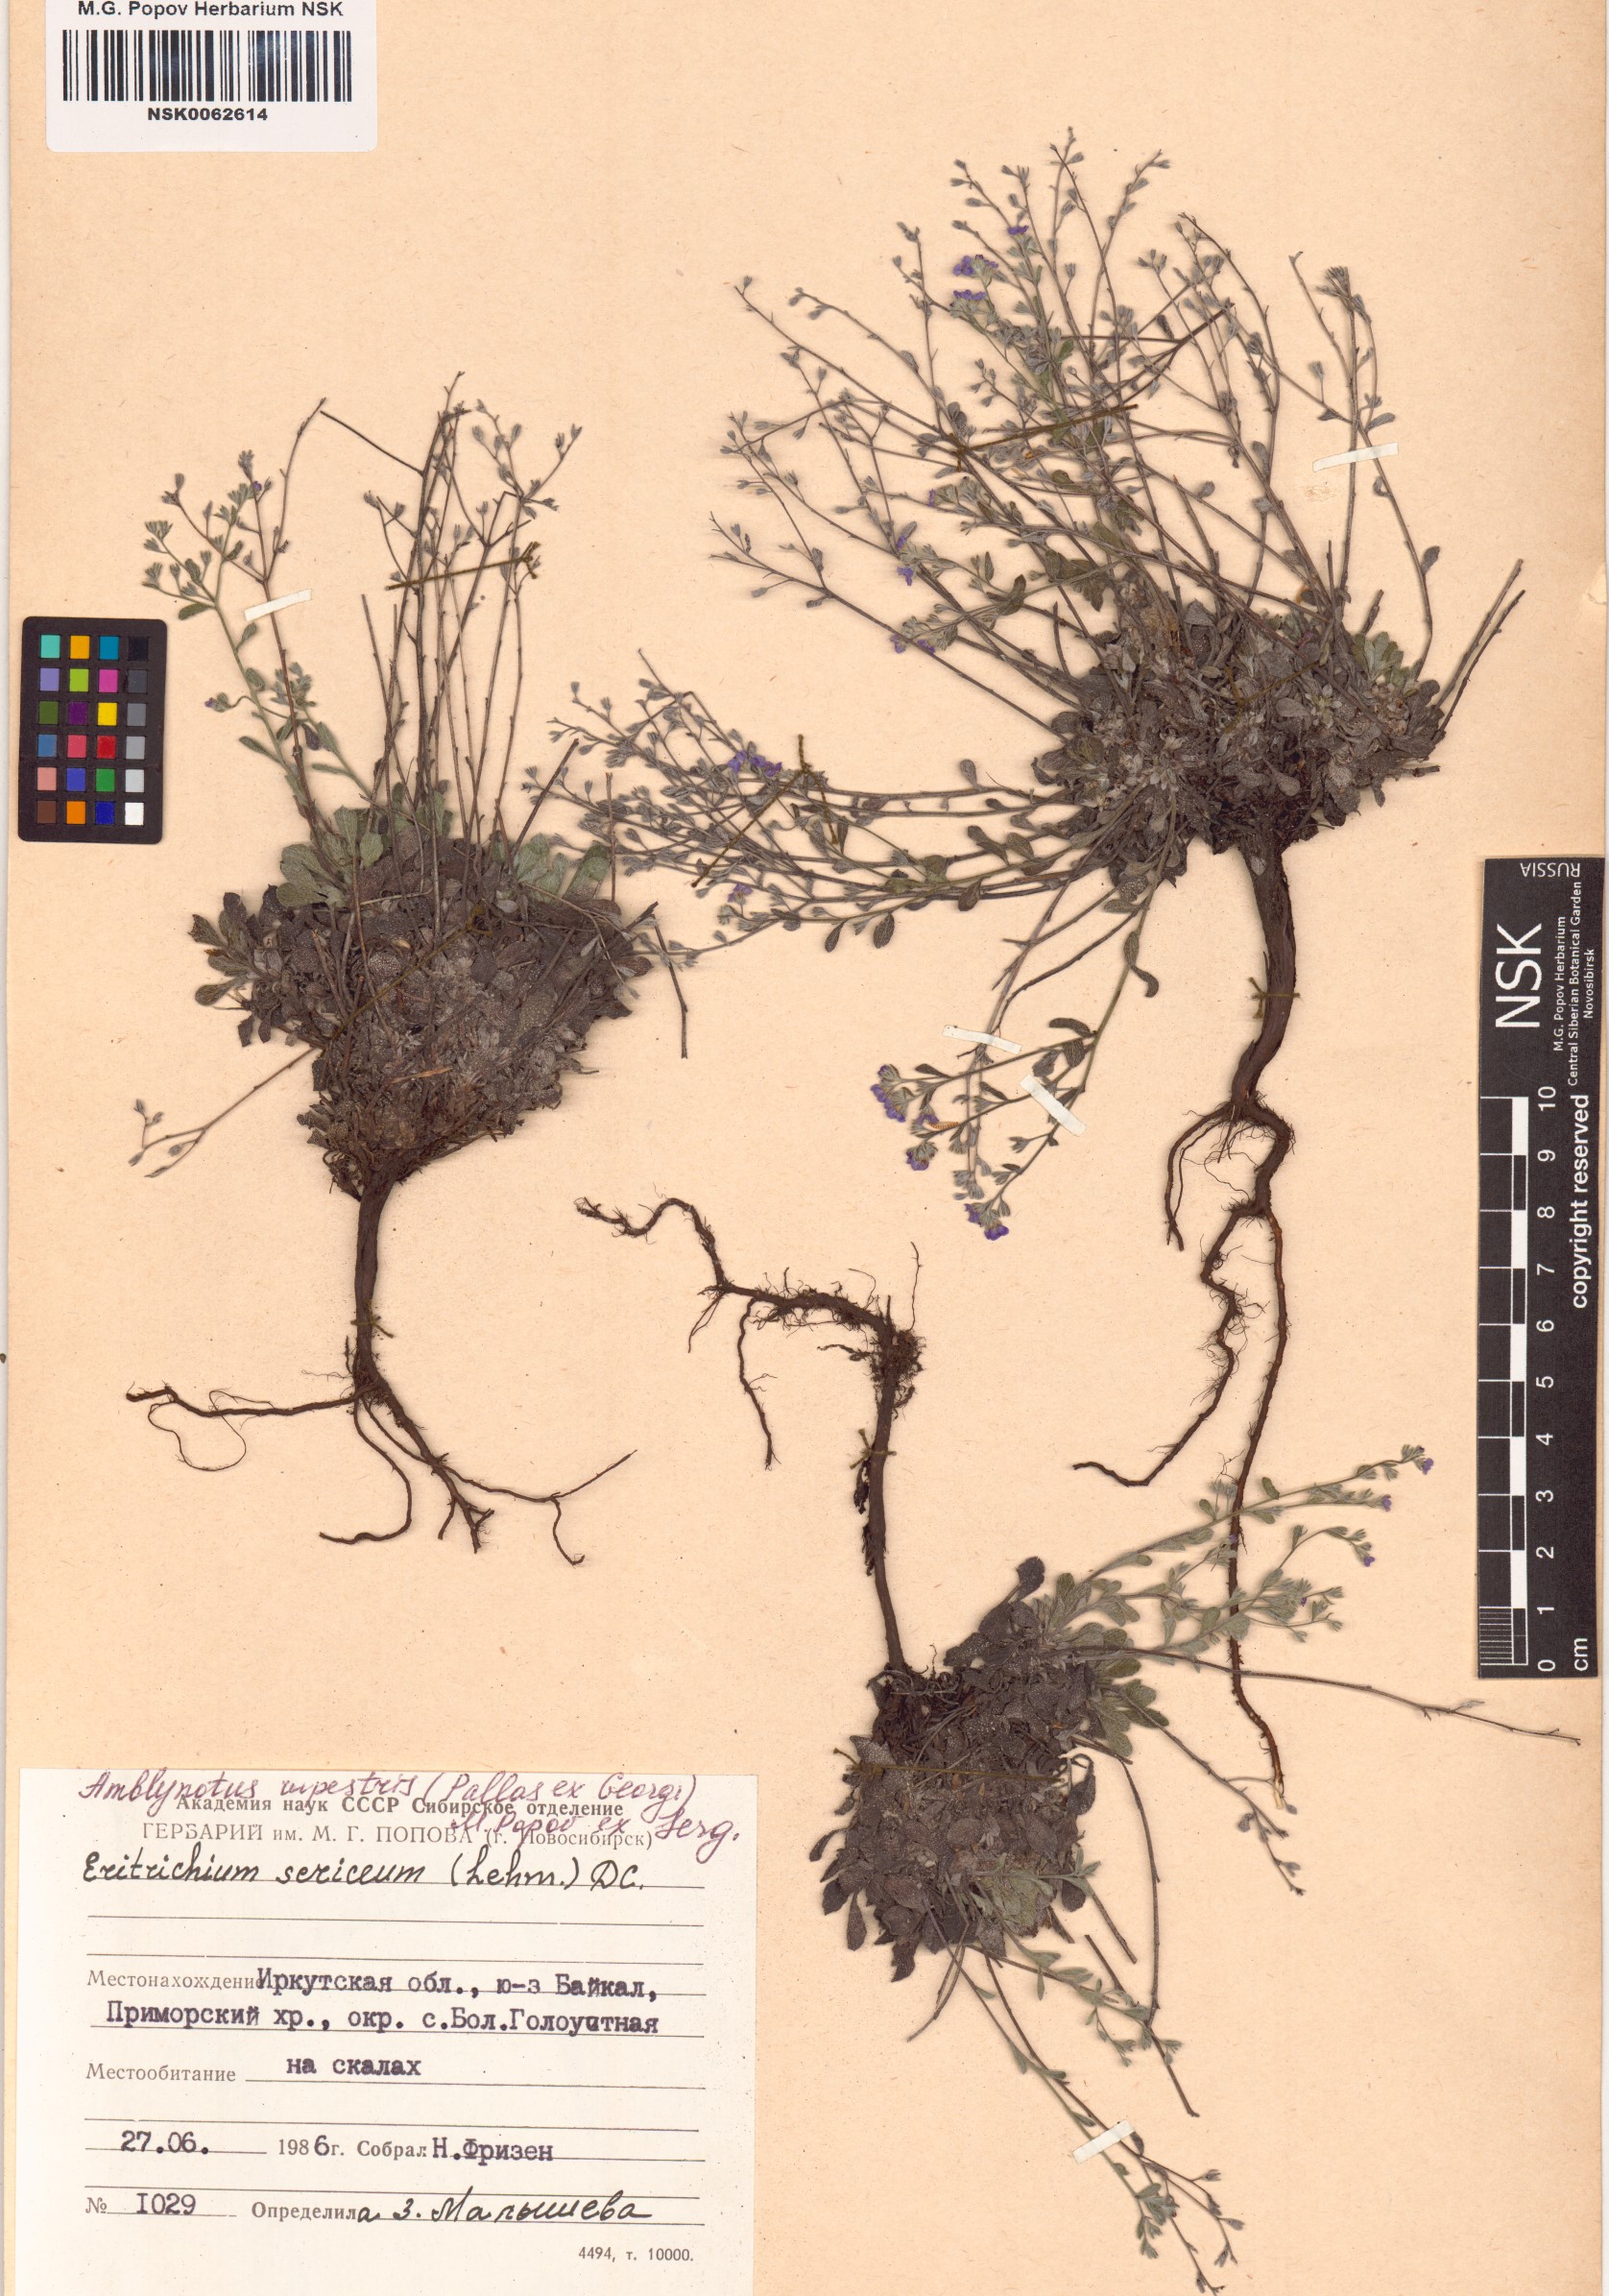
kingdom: Plantae
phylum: Tracheophyta
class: Magnoliopsida
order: Boraginales
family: Boraginaceae
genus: Eritrichium
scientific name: Eritrichium rupestre
